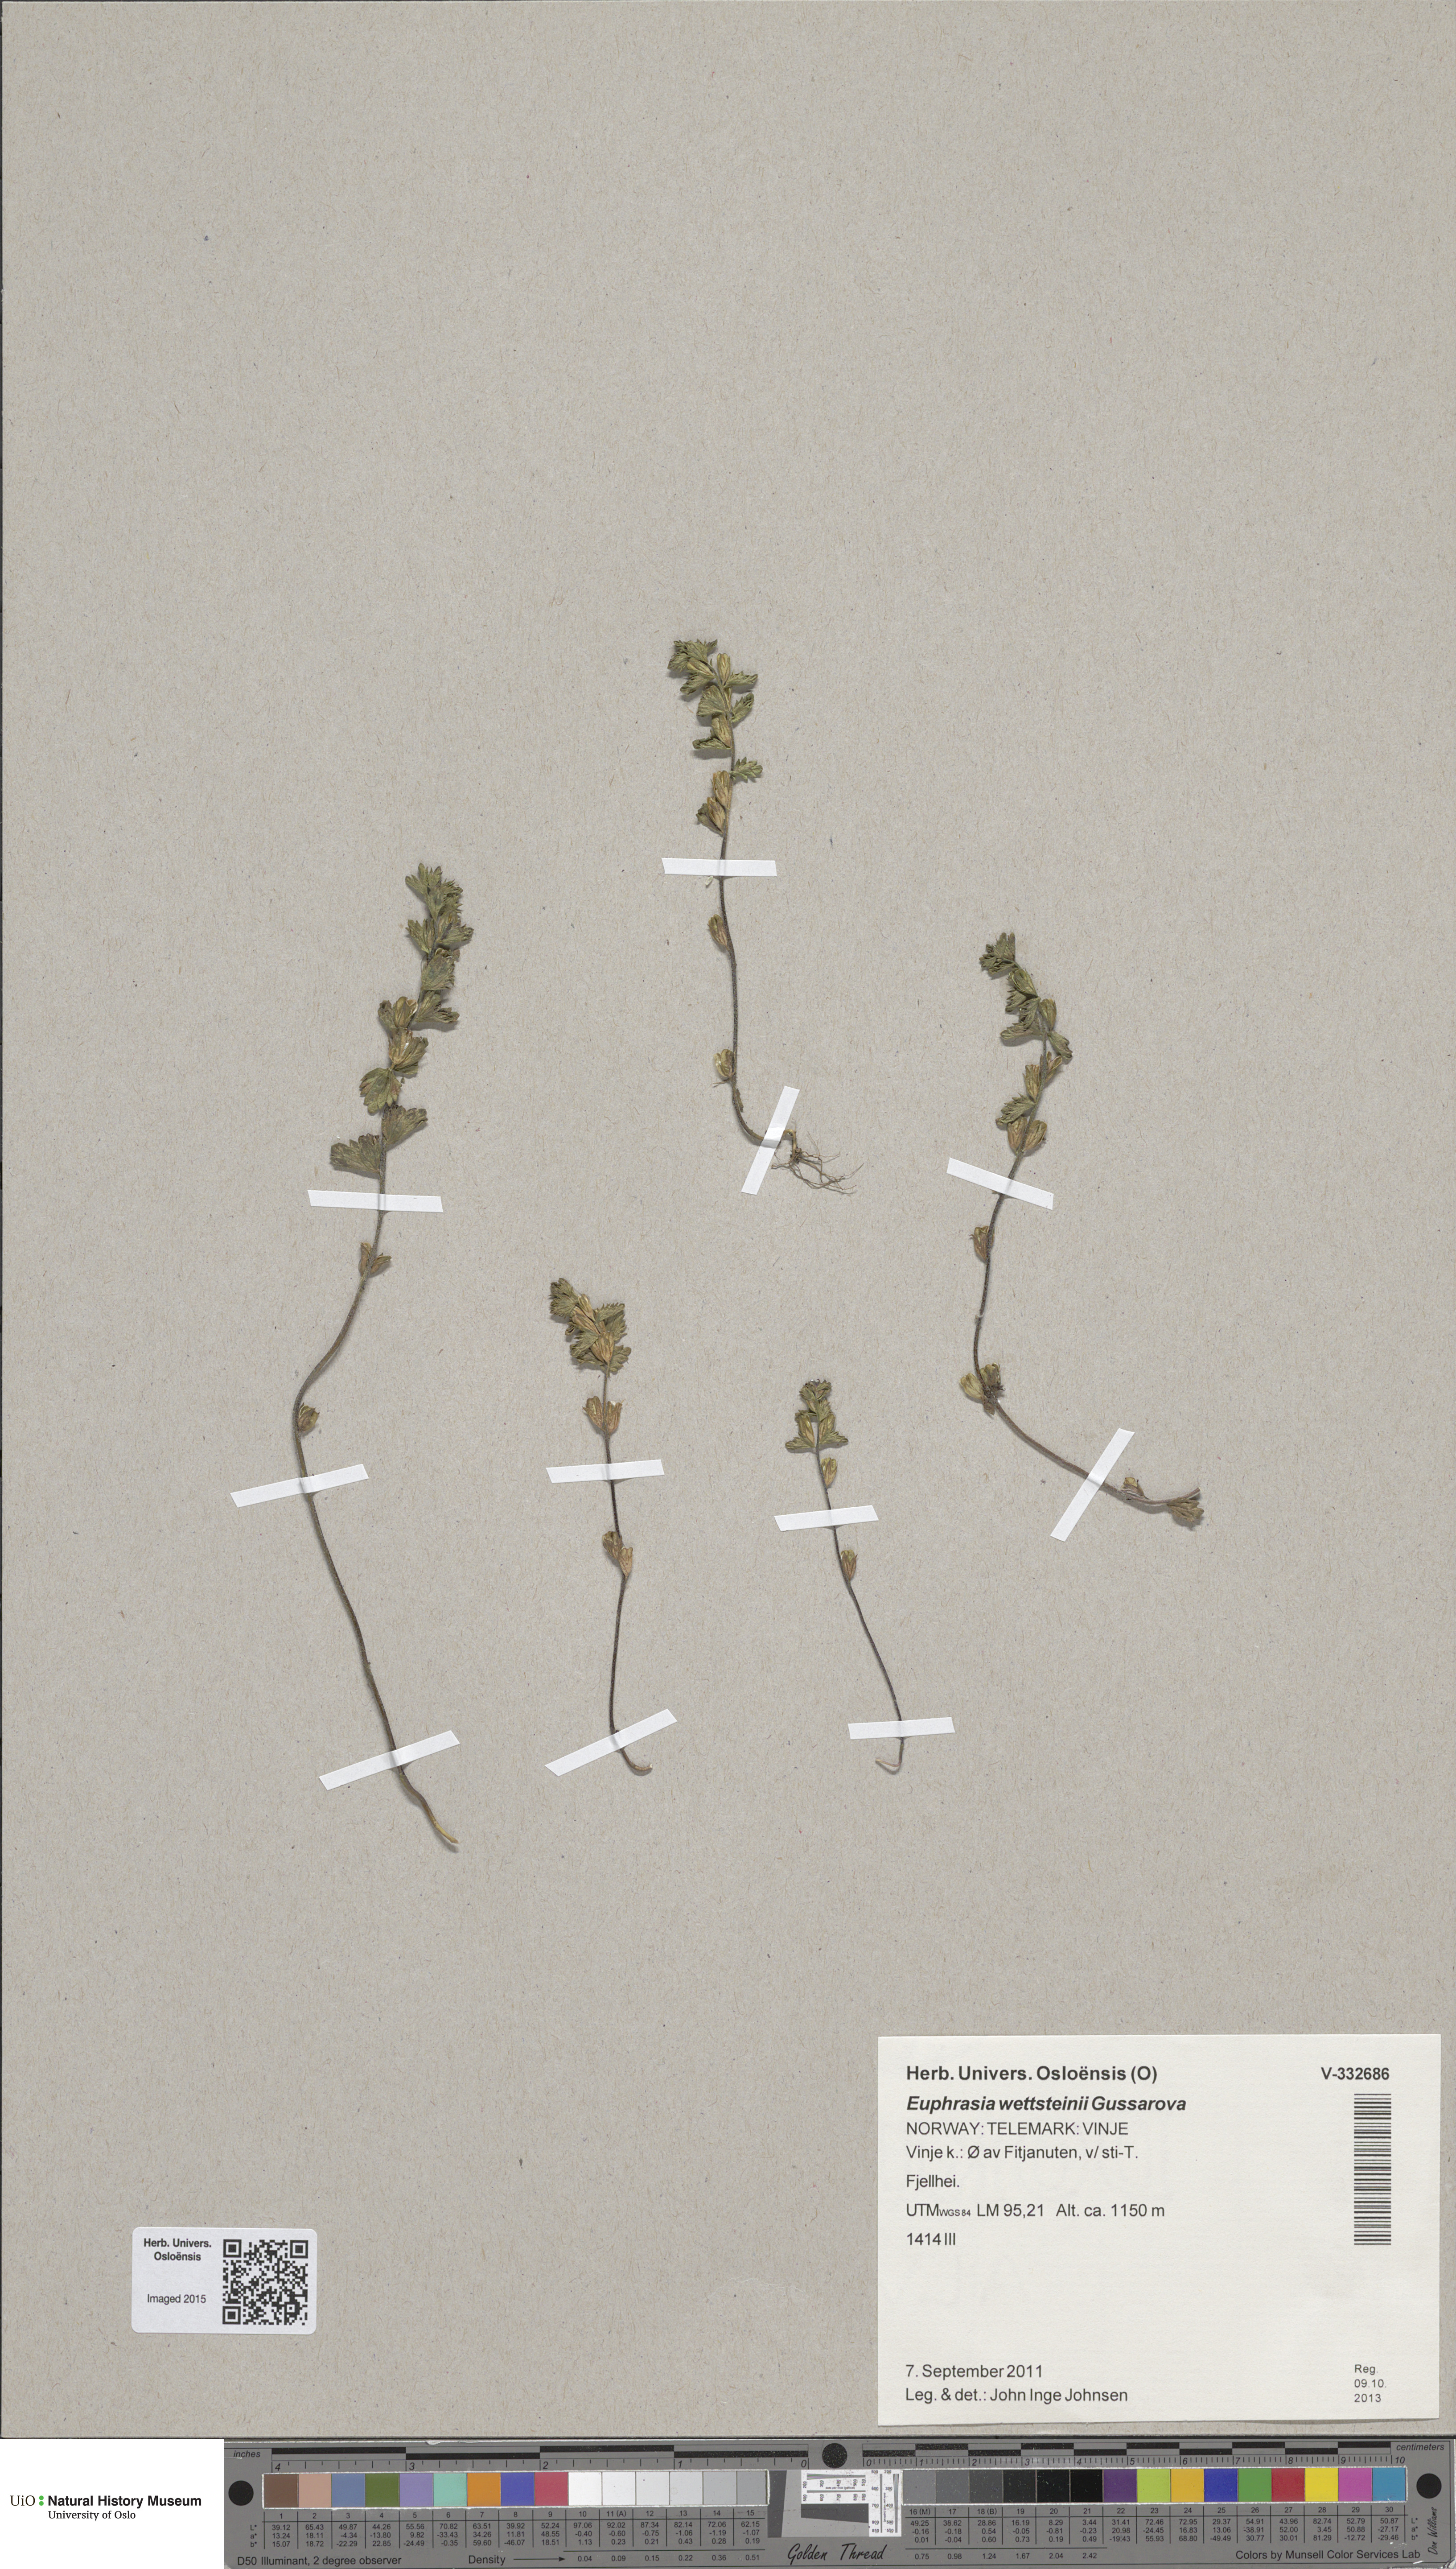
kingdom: Plantae
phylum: Tracheophyta
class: Magnoliopsida
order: Lamiales
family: Orobanchaceae
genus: Euphrasia
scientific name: Euphrasia wettsteinii
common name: Wettstein's eyebright
